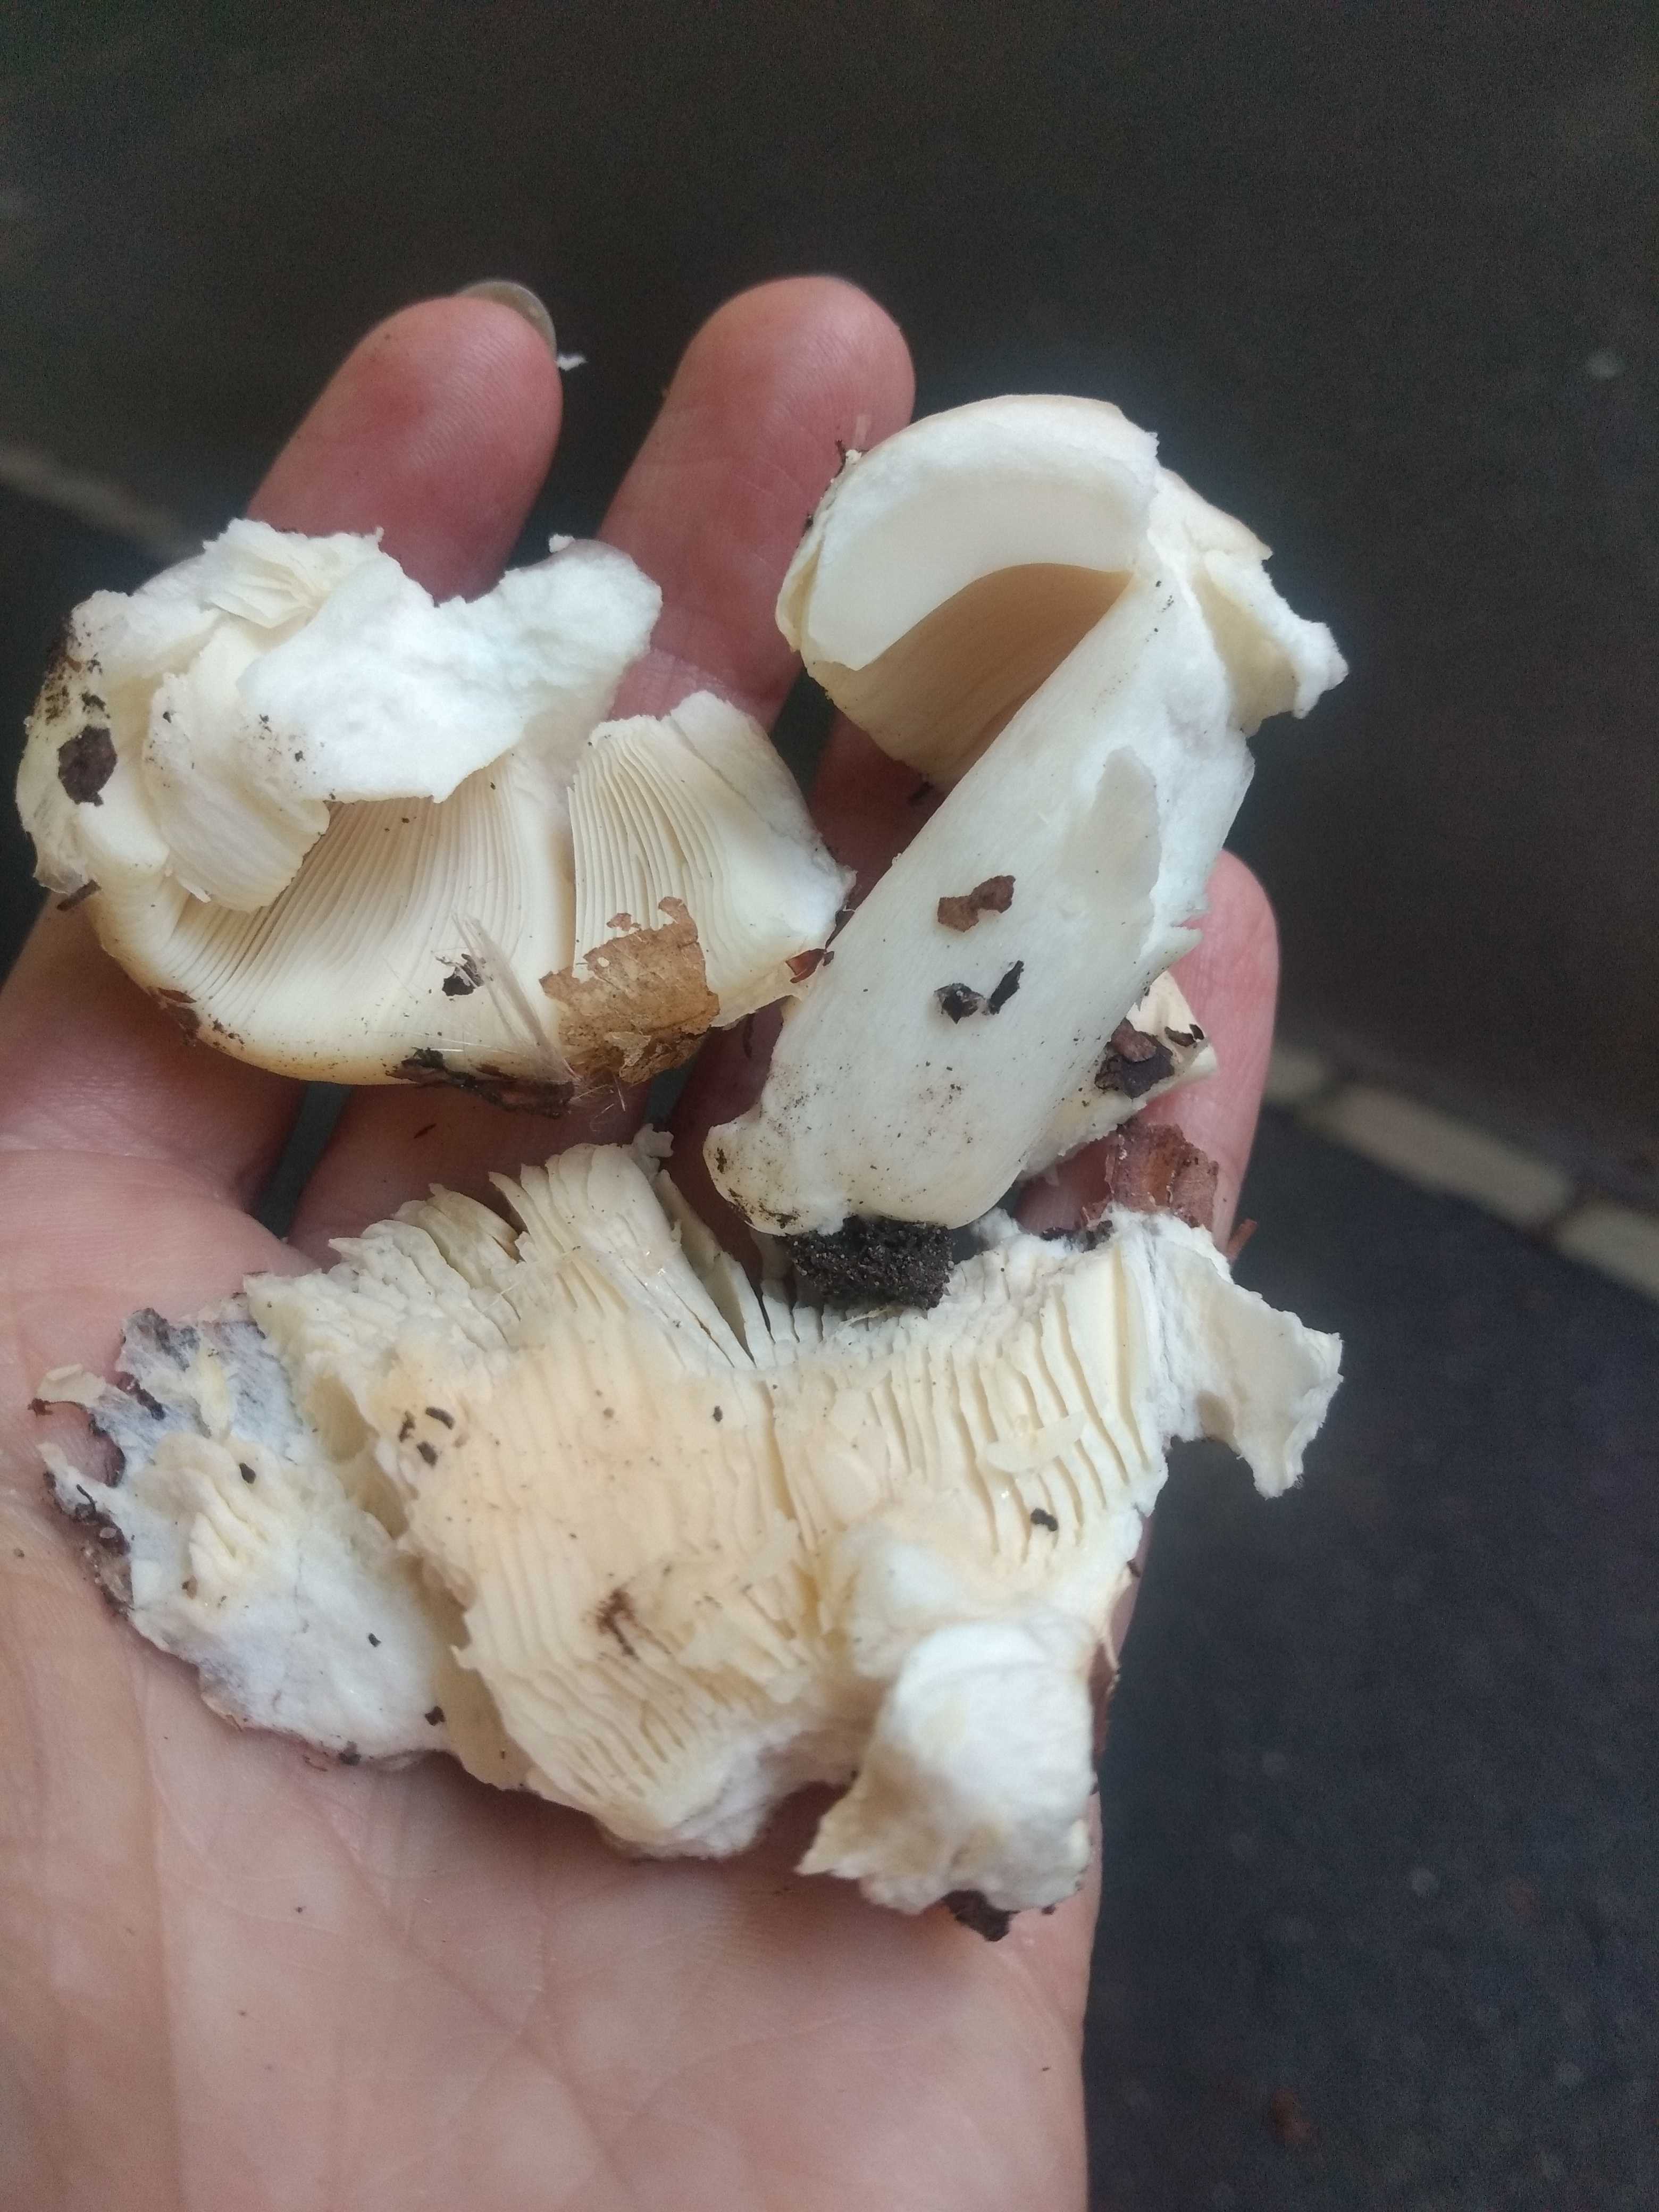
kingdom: Fungi
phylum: Basidiomycota
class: Agaricomycetes
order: Russulales
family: Russulaceae
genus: Russula
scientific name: Russula
